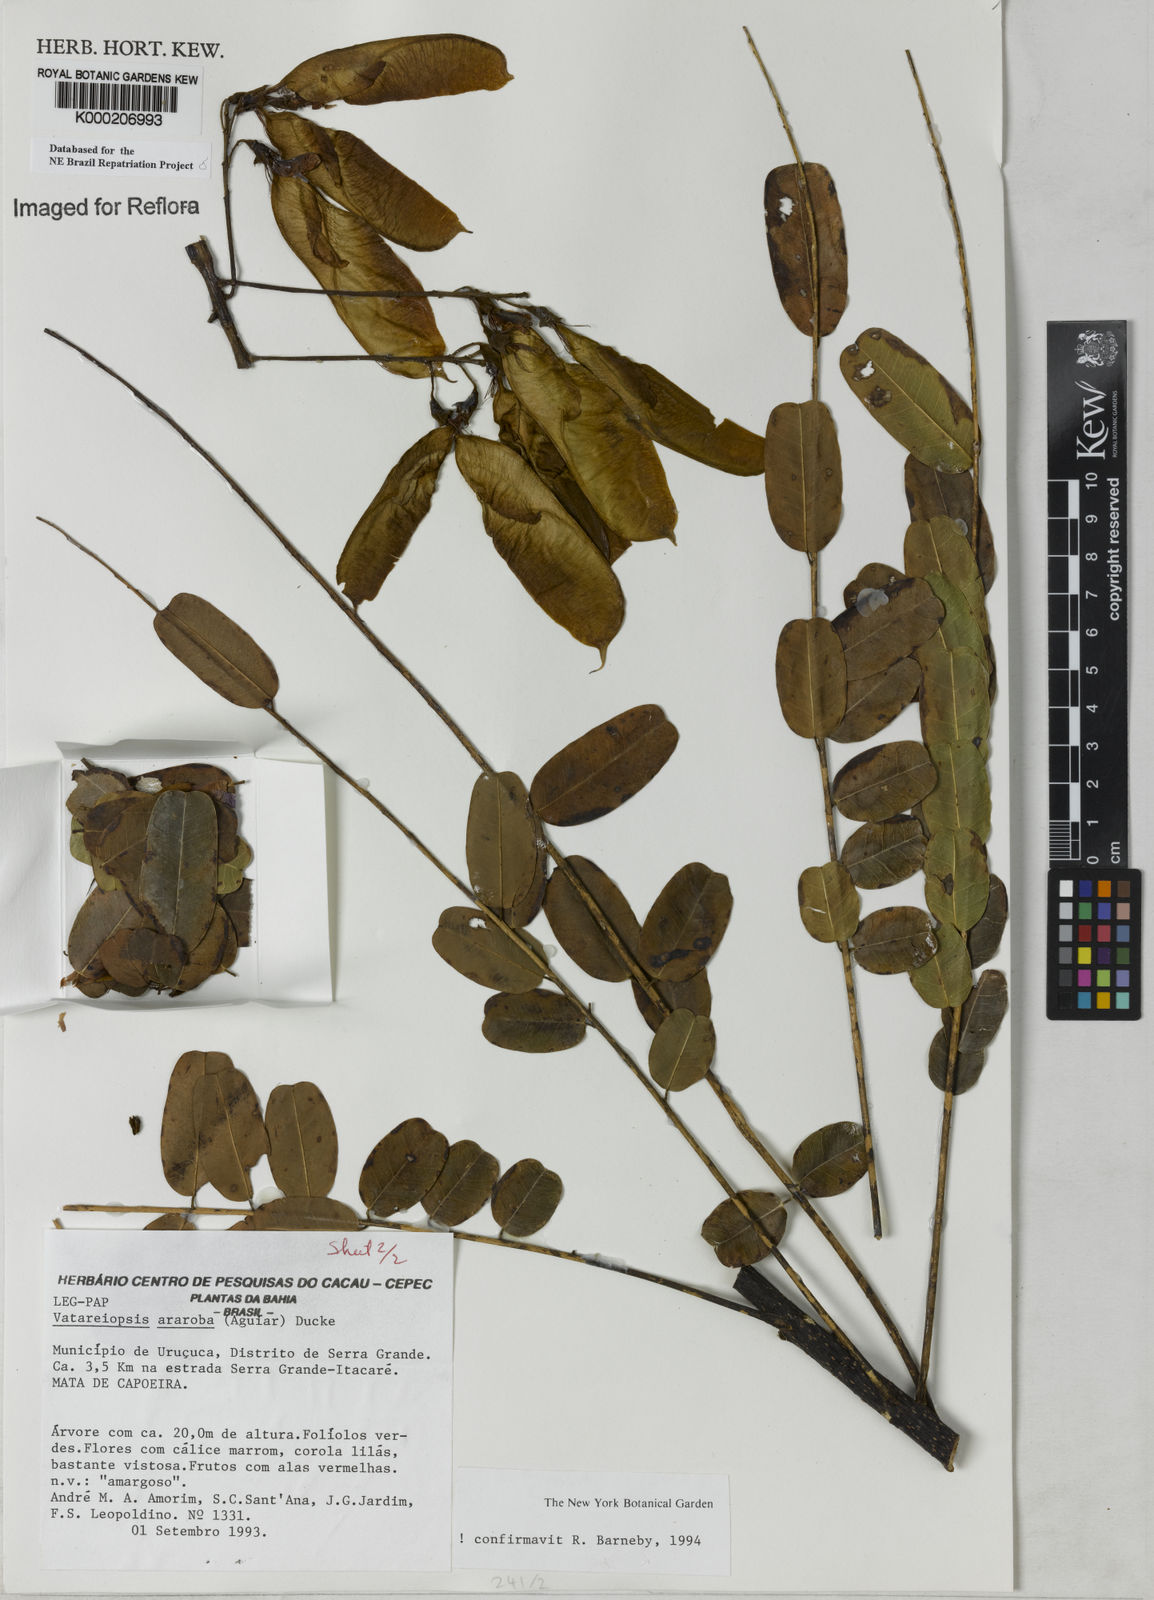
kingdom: Plantae
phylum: Tracheophyta
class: Magnoliopsida
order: Fabales
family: Fabaceae
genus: Vataireopsis
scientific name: Vataireopsis araroba
